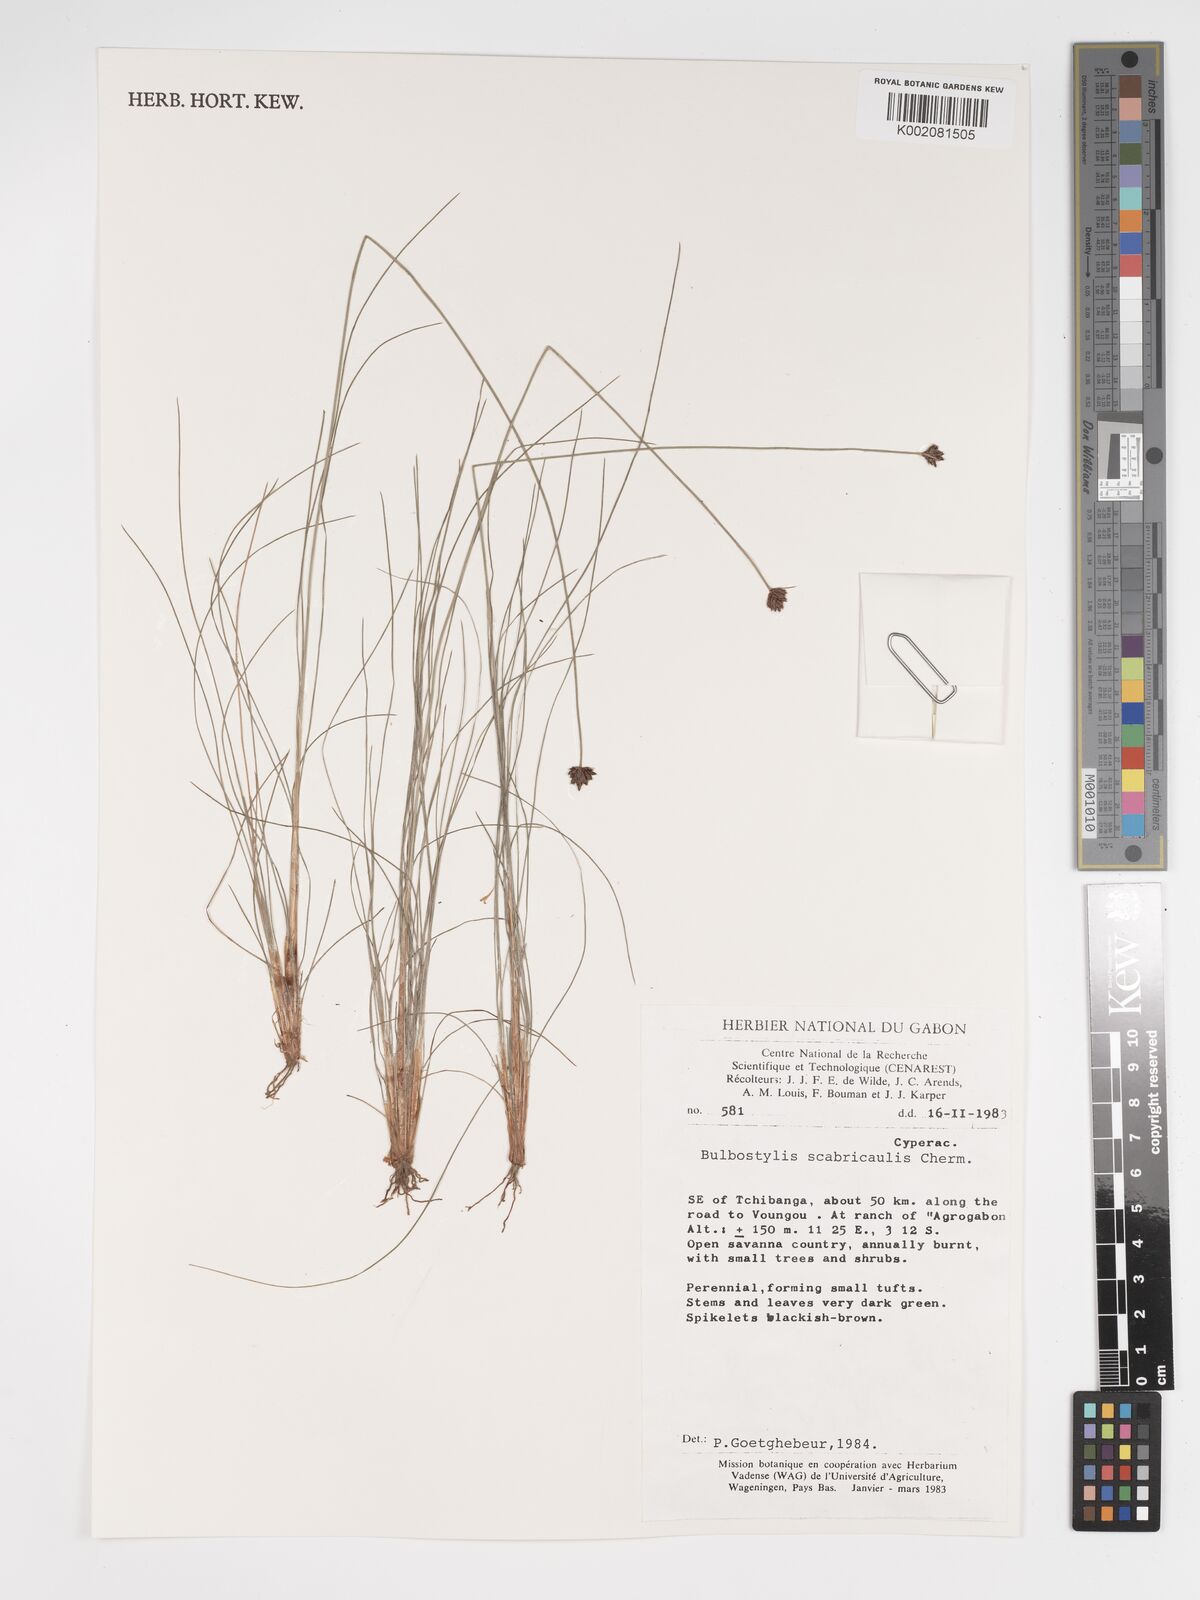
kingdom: Plantae
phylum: Tracheophyta
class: Liliopsida
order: Poales
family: Cyperaceae
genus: Bulbostylis
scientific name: Bulbostylis scabricaulis
